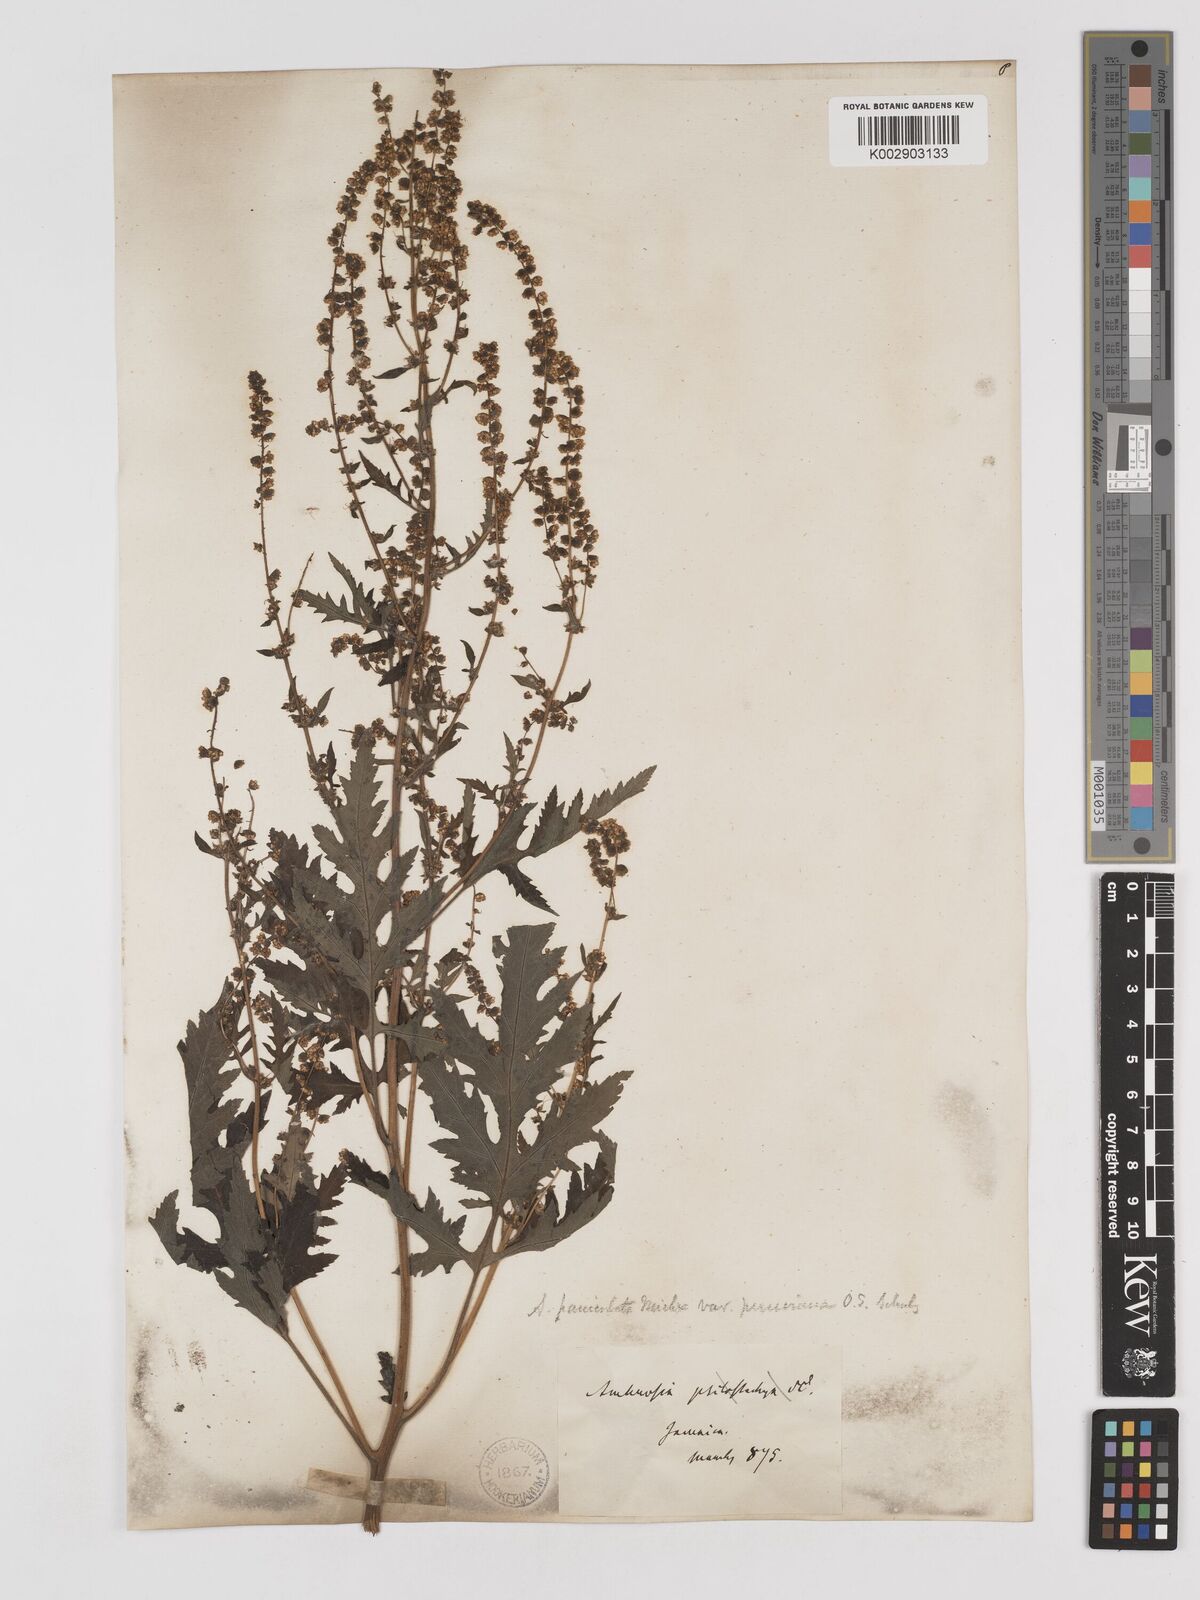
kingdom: Plantae
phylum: Tracheophyta
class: Magnoliopsida
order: Asterales
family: Asteraceae
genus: Ambrosia
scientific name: Ambrosia psilostachya
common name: Perennial ragweed
